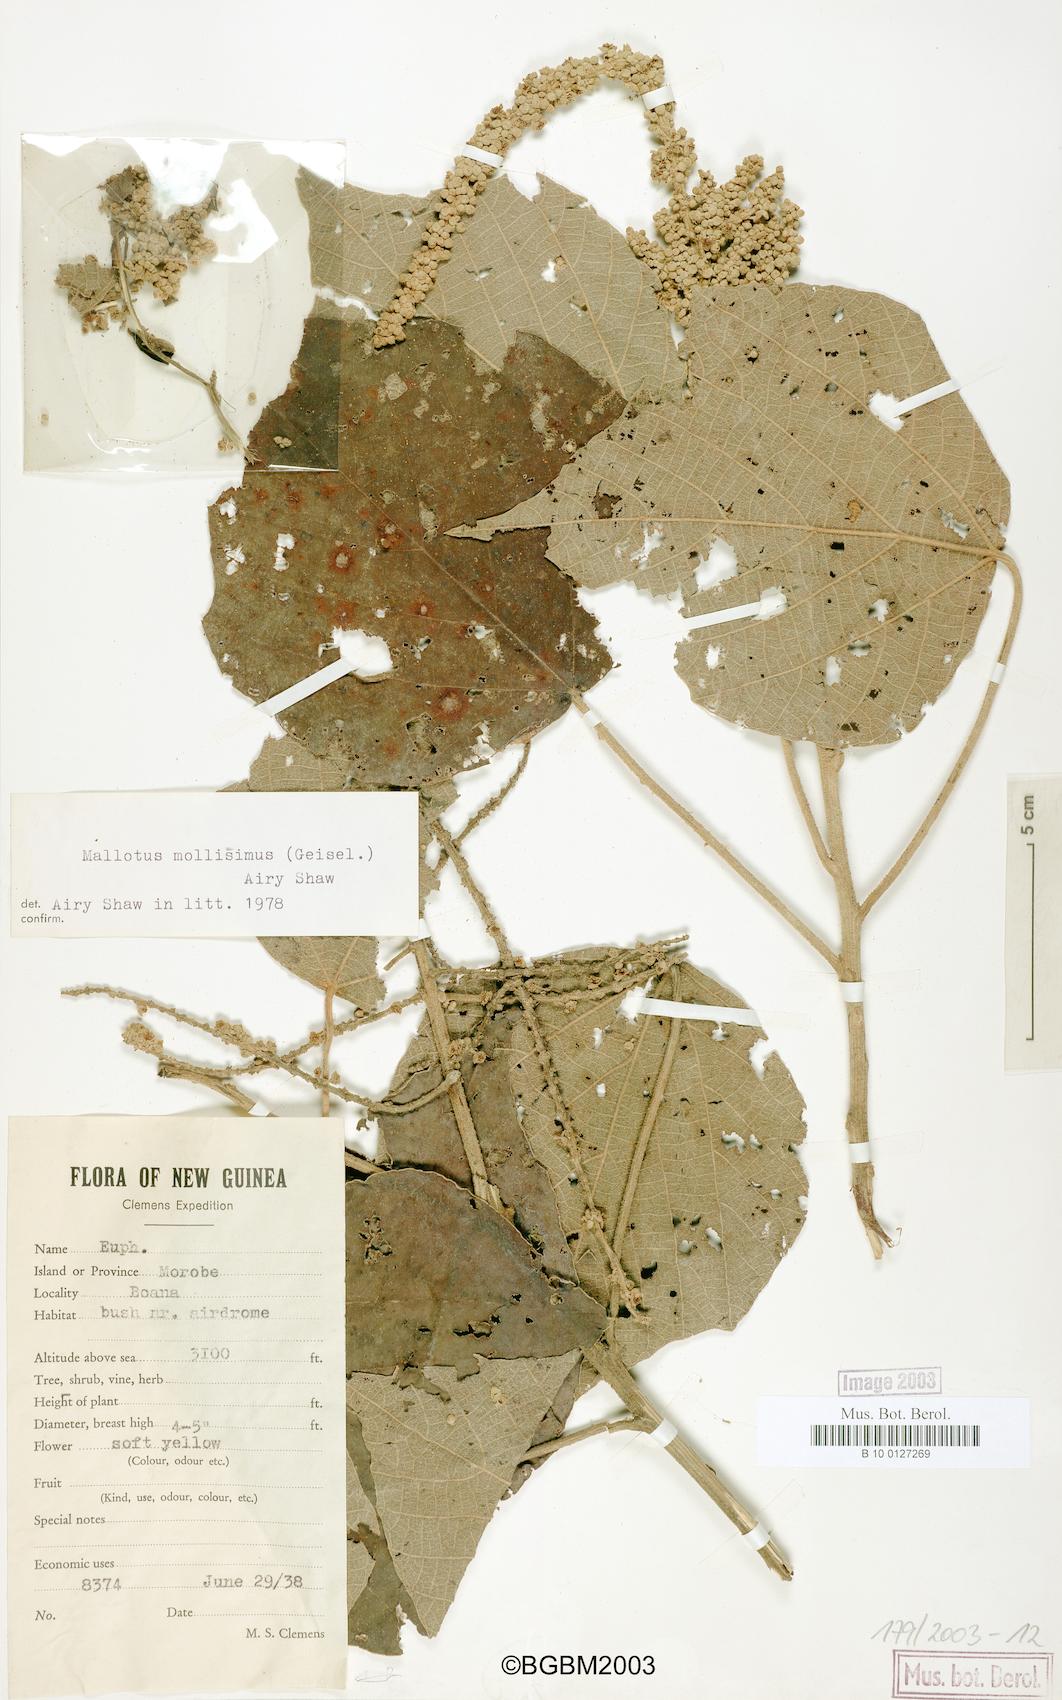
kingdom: Plantae
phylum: Tracheophyta
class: Magnoliopsida
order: Malpighiales
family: Euphorbiaceae
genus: Mallotus
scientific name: Mallotus mollissimus
